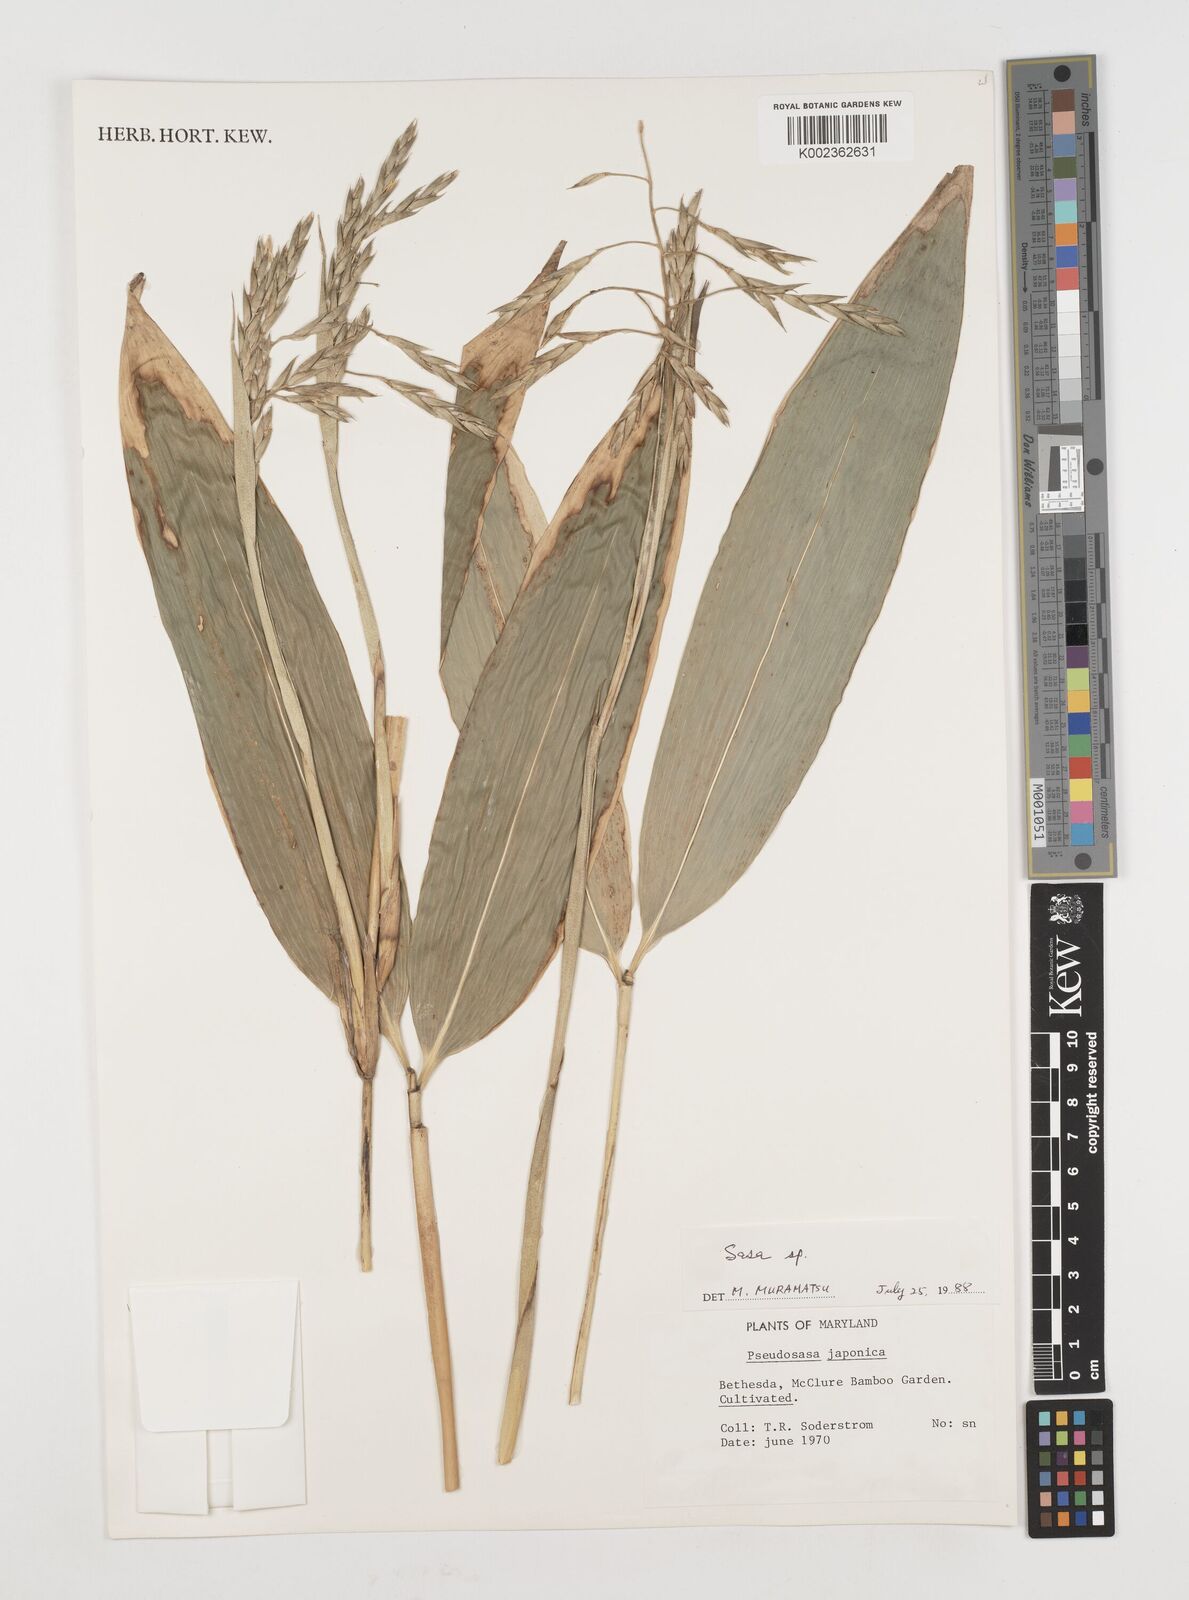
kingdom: Plantae
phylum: Tracheophyta
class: Liliopsida
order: Poales
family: Poaceae
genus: Pseudosasa
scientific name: Pseudosasa japonica
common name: Arrow bamboo
